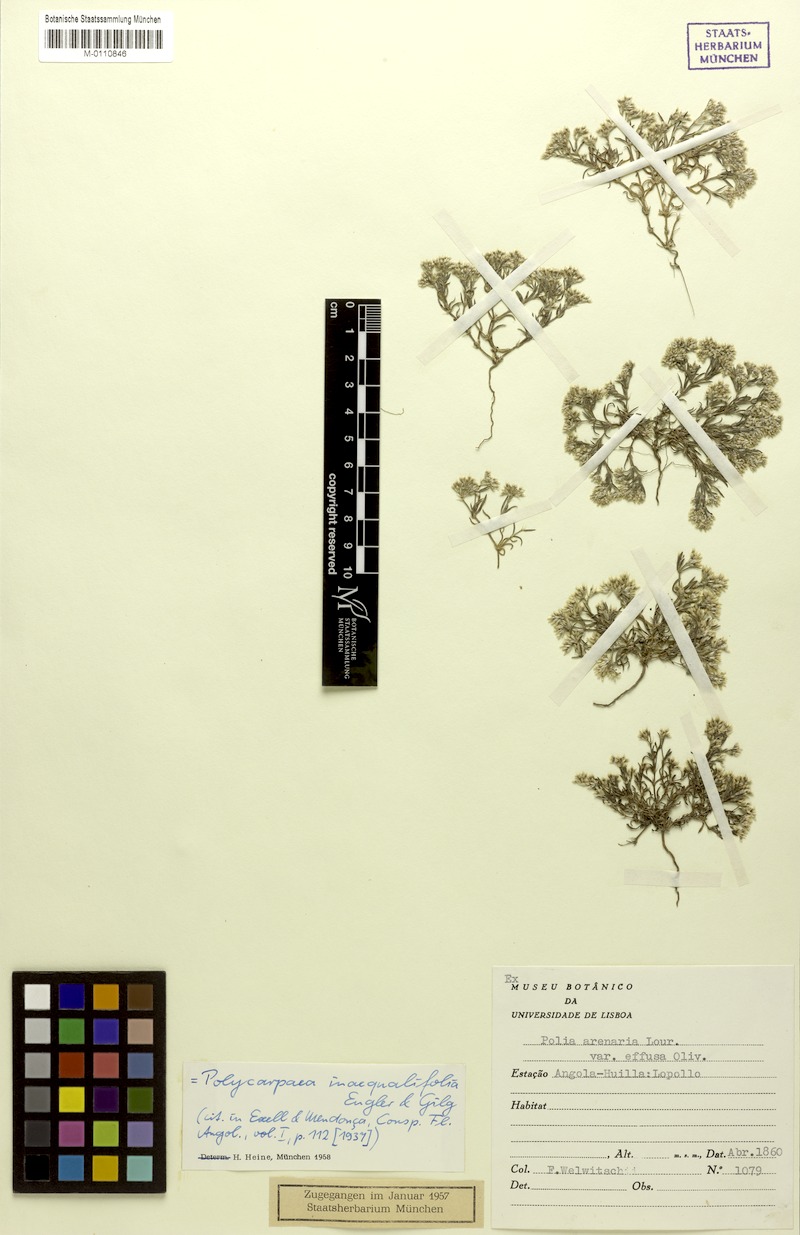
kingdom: Plantae
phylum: Tracheophyta
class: Magnoliopsida
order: Caryophyllales
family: Caryophyllaceae
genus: Polycarpaea
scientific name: Polycarpaea inaequalifolia
